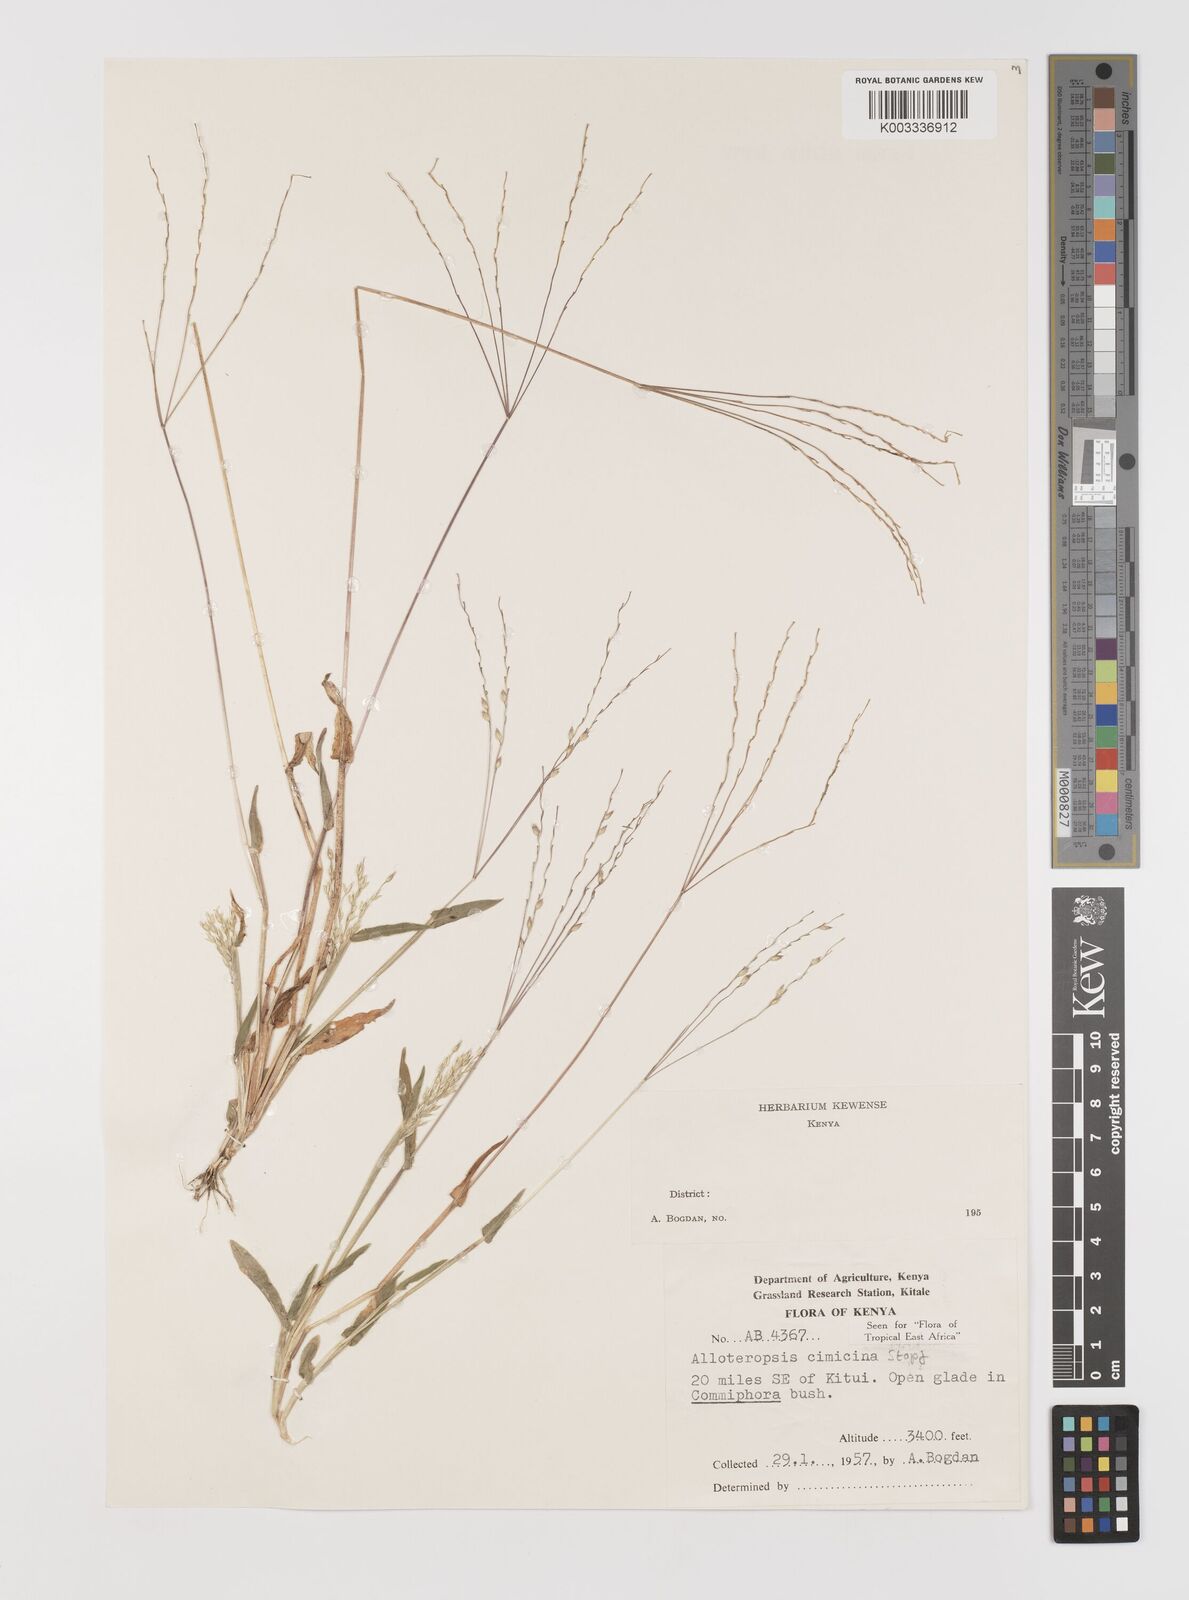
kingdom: Plantae
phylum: Tracheophyta
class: Liliopsida
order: Poales
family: Poaceae
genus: Alloteropsis
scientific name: Alloteropsis cimicina
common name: Summergrass
